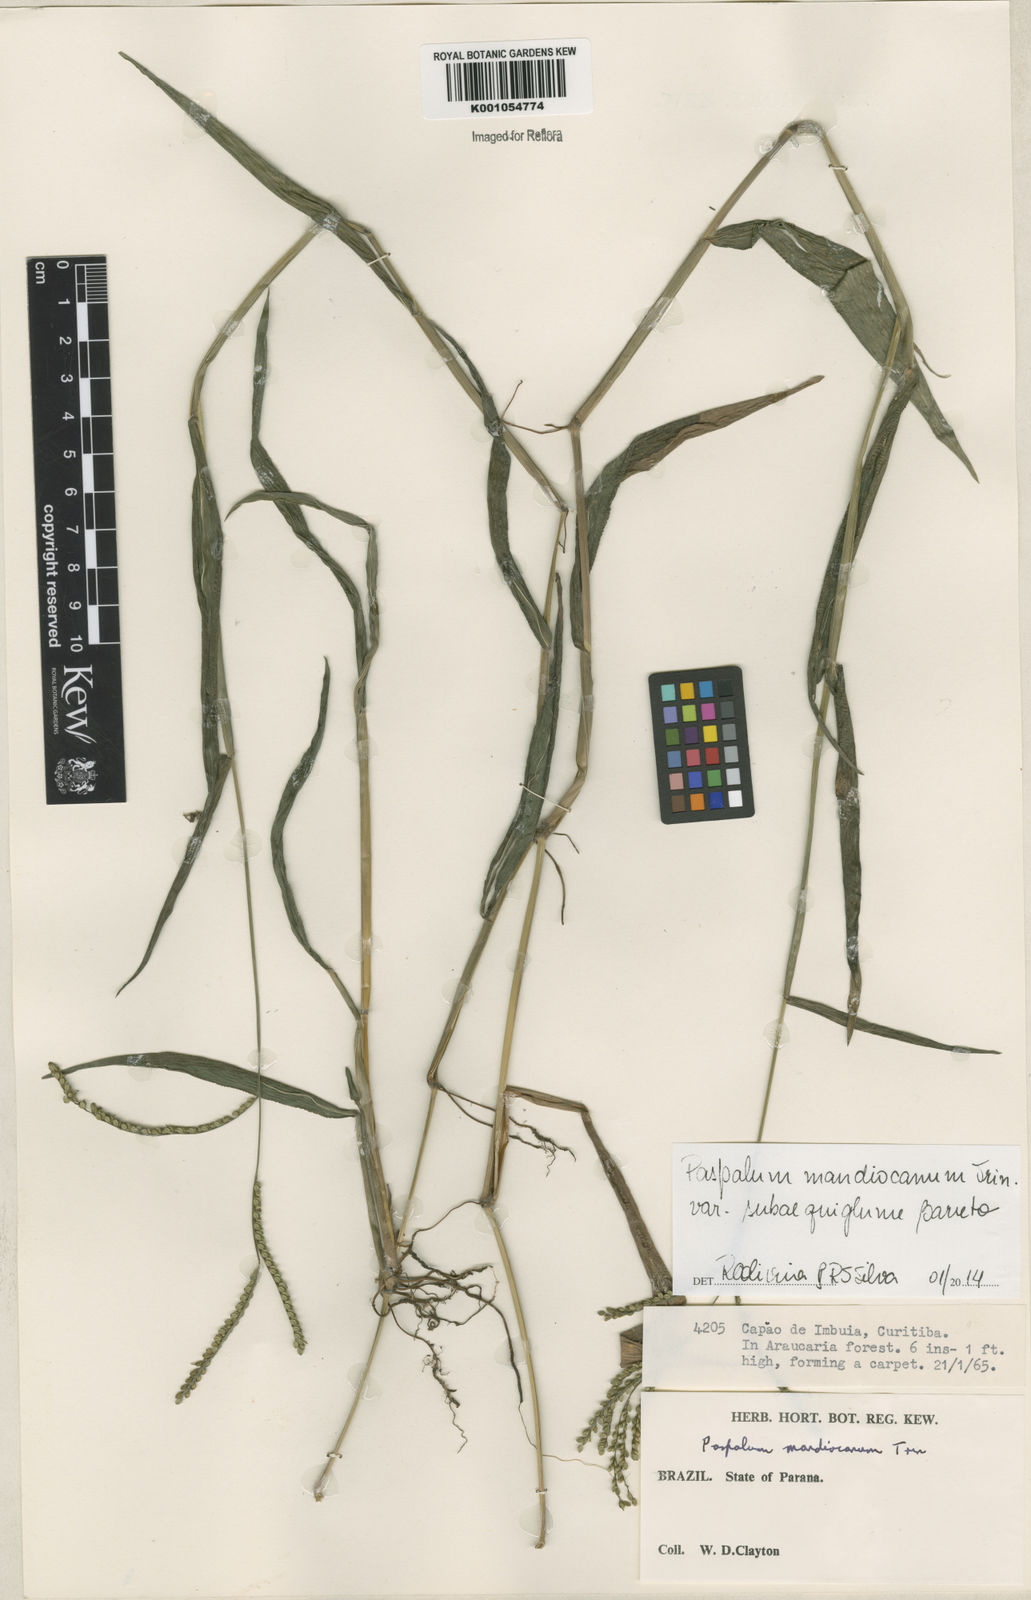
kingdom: Plantae
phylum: Tracheophyta
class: Liliopsida
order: Poales
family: Poaceae
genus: Paspalum
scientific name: Paspalum mandiocanum
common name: Paspalum
